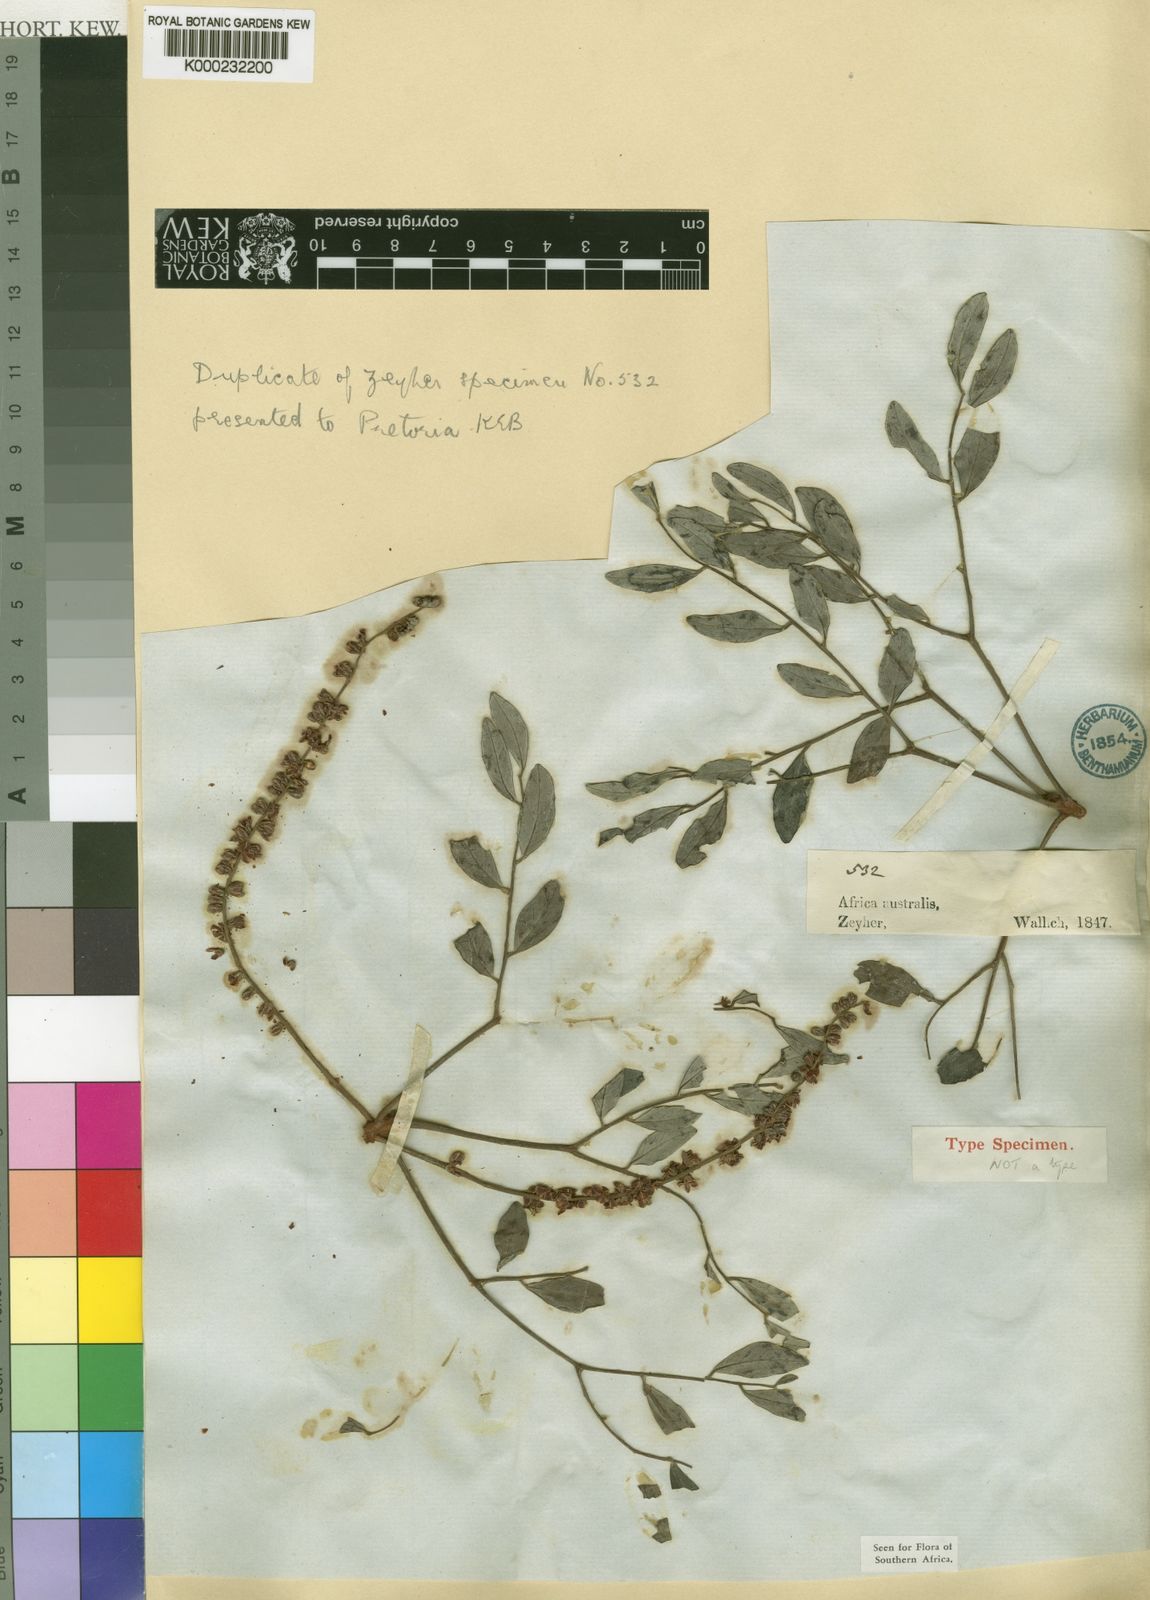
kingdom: Plantae
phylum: Tracheophyta
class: Magnoliopsida
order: Fabales
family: Fabaceae
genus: Burkea
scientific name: Burkea africana
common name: Mkalati tree
